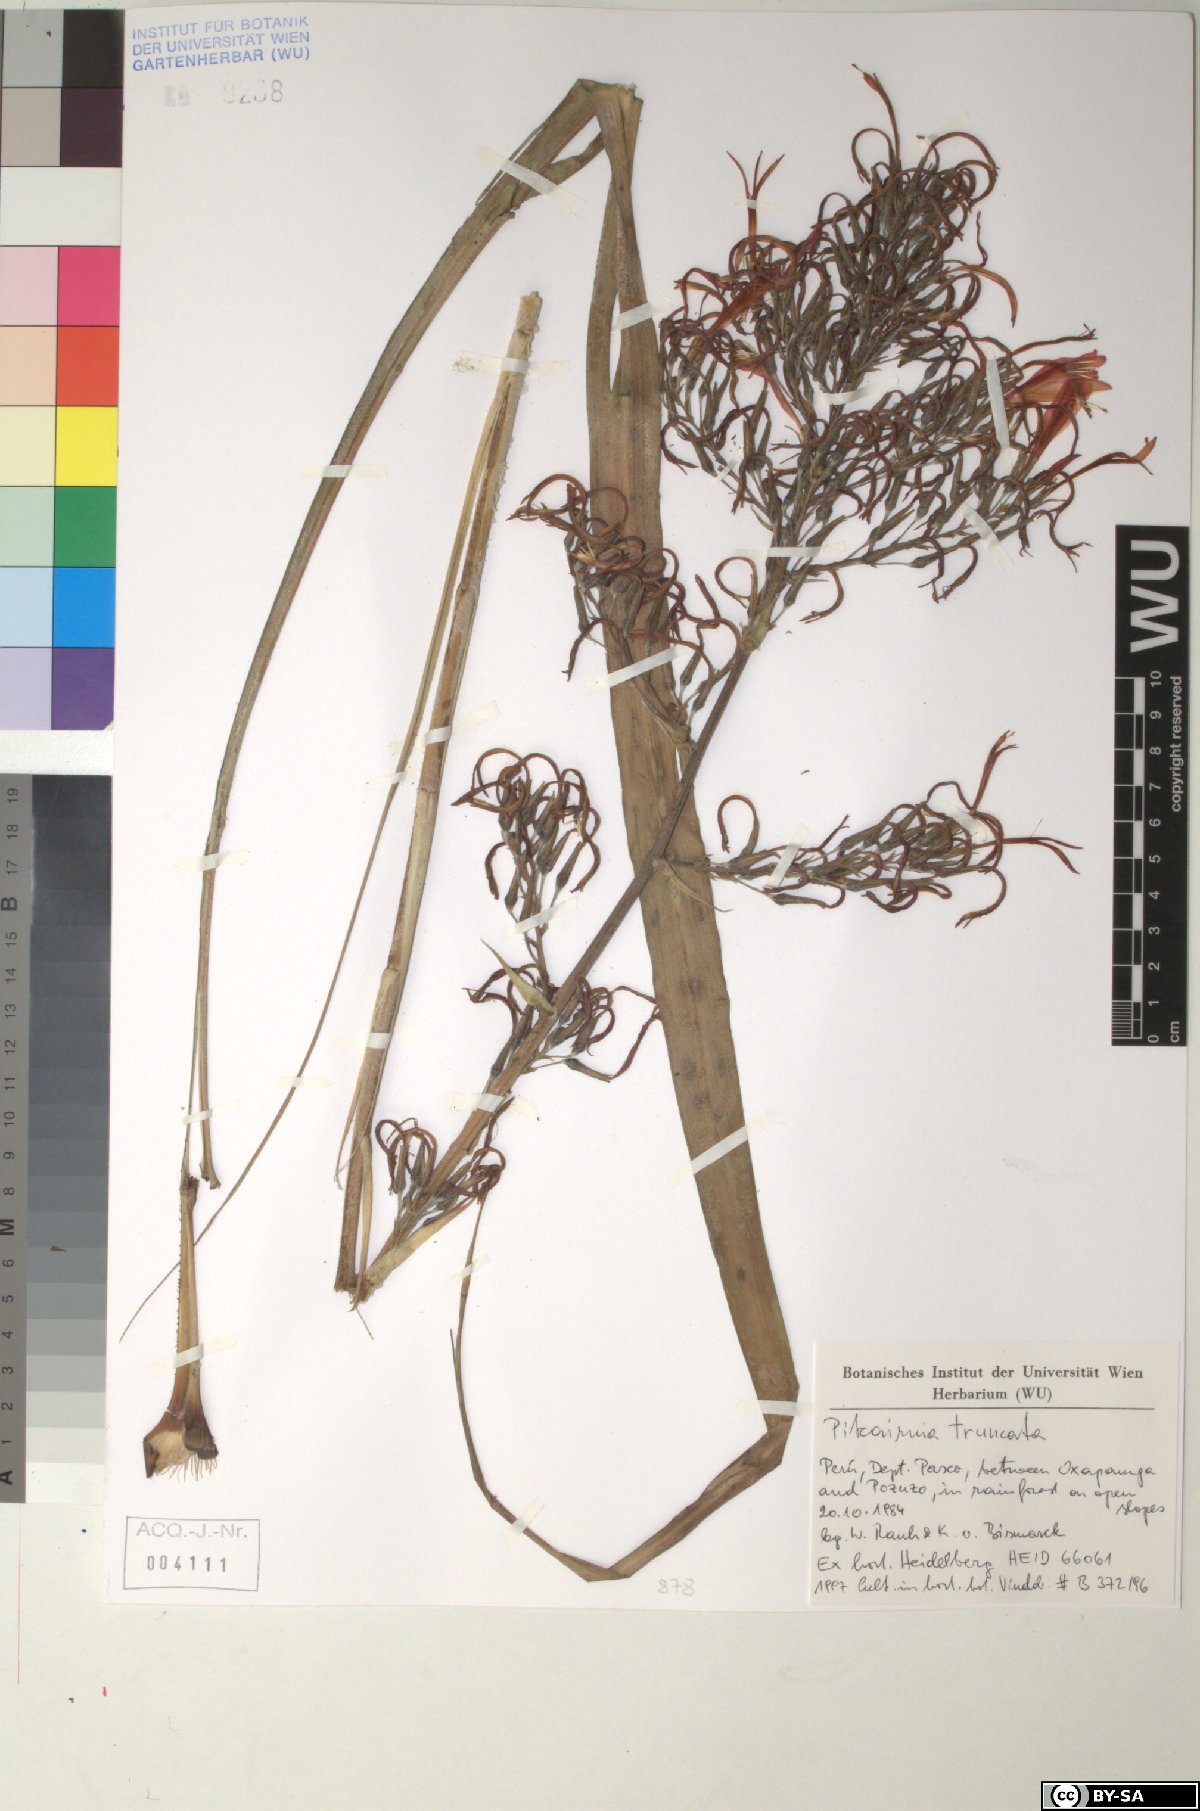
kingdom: Plantae
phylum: Tracheophyta
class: Liliopsida
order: Poales
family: Bromeliaceae
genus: Pitcairnia
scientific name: Pitcairnia truncata
